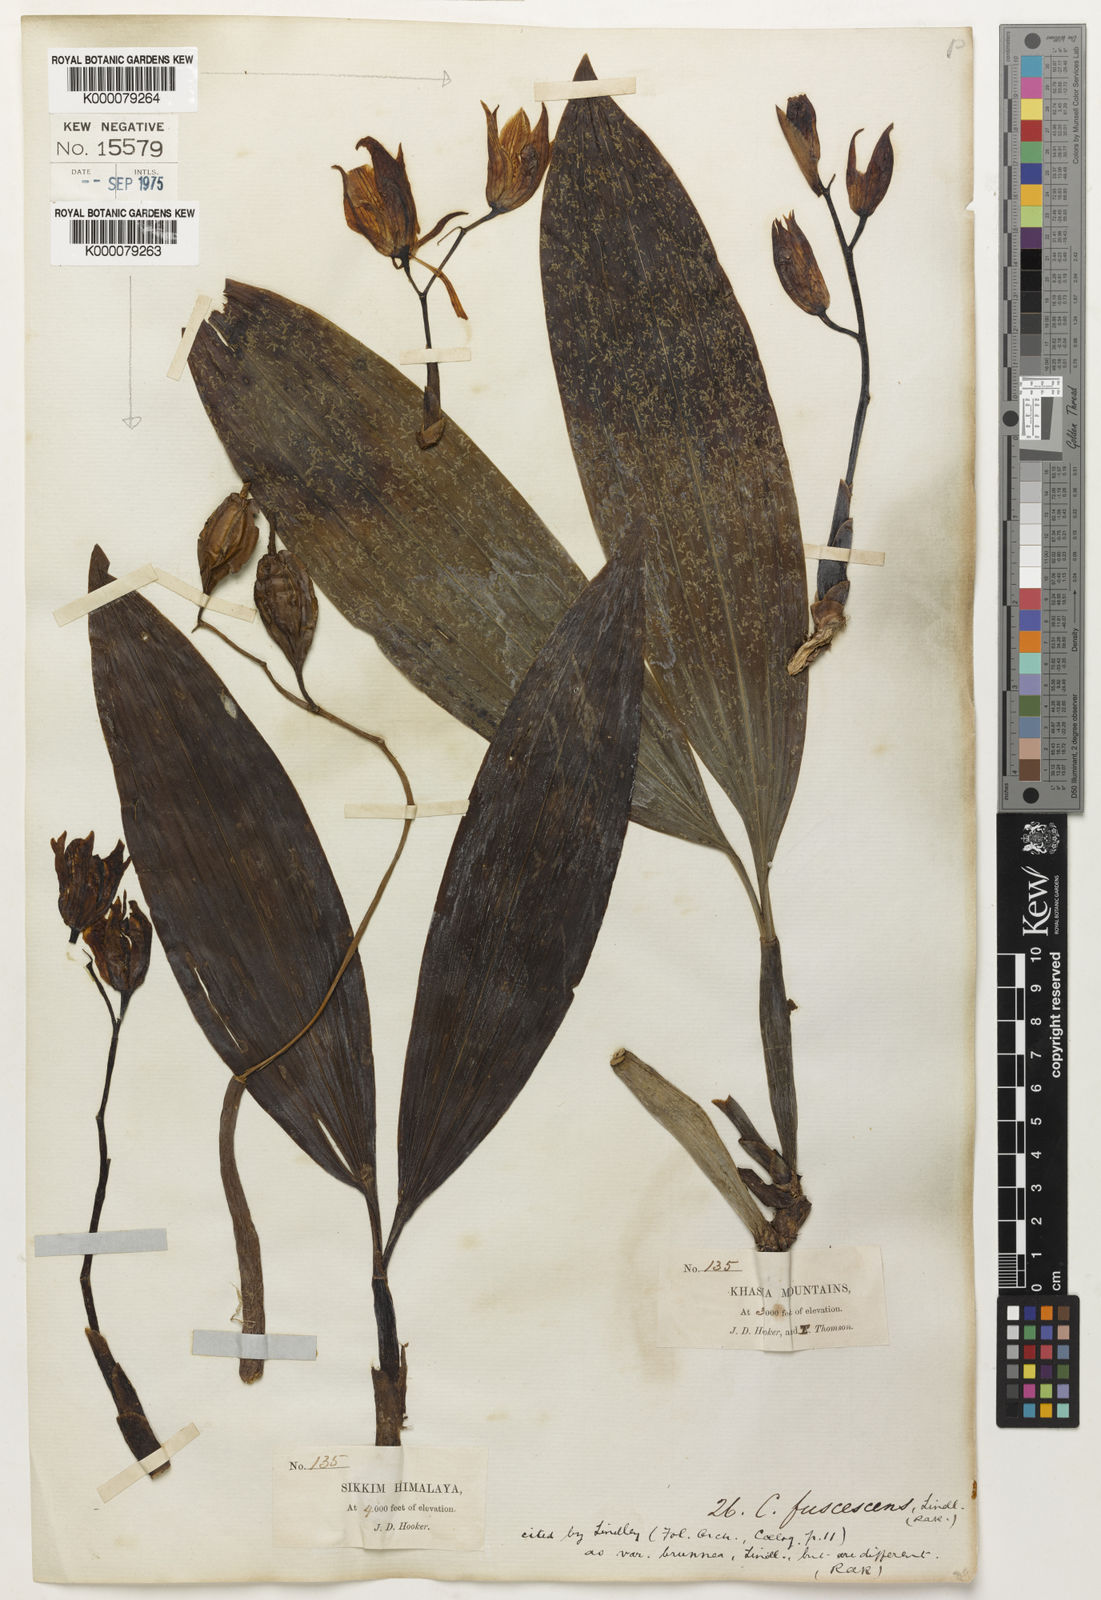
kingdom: Plantae
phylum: Tracheophyta
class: Liliopsida
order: Asparagales
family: Orchidaceae
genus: Coelogyne
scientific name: Coelogyne fuscescens
